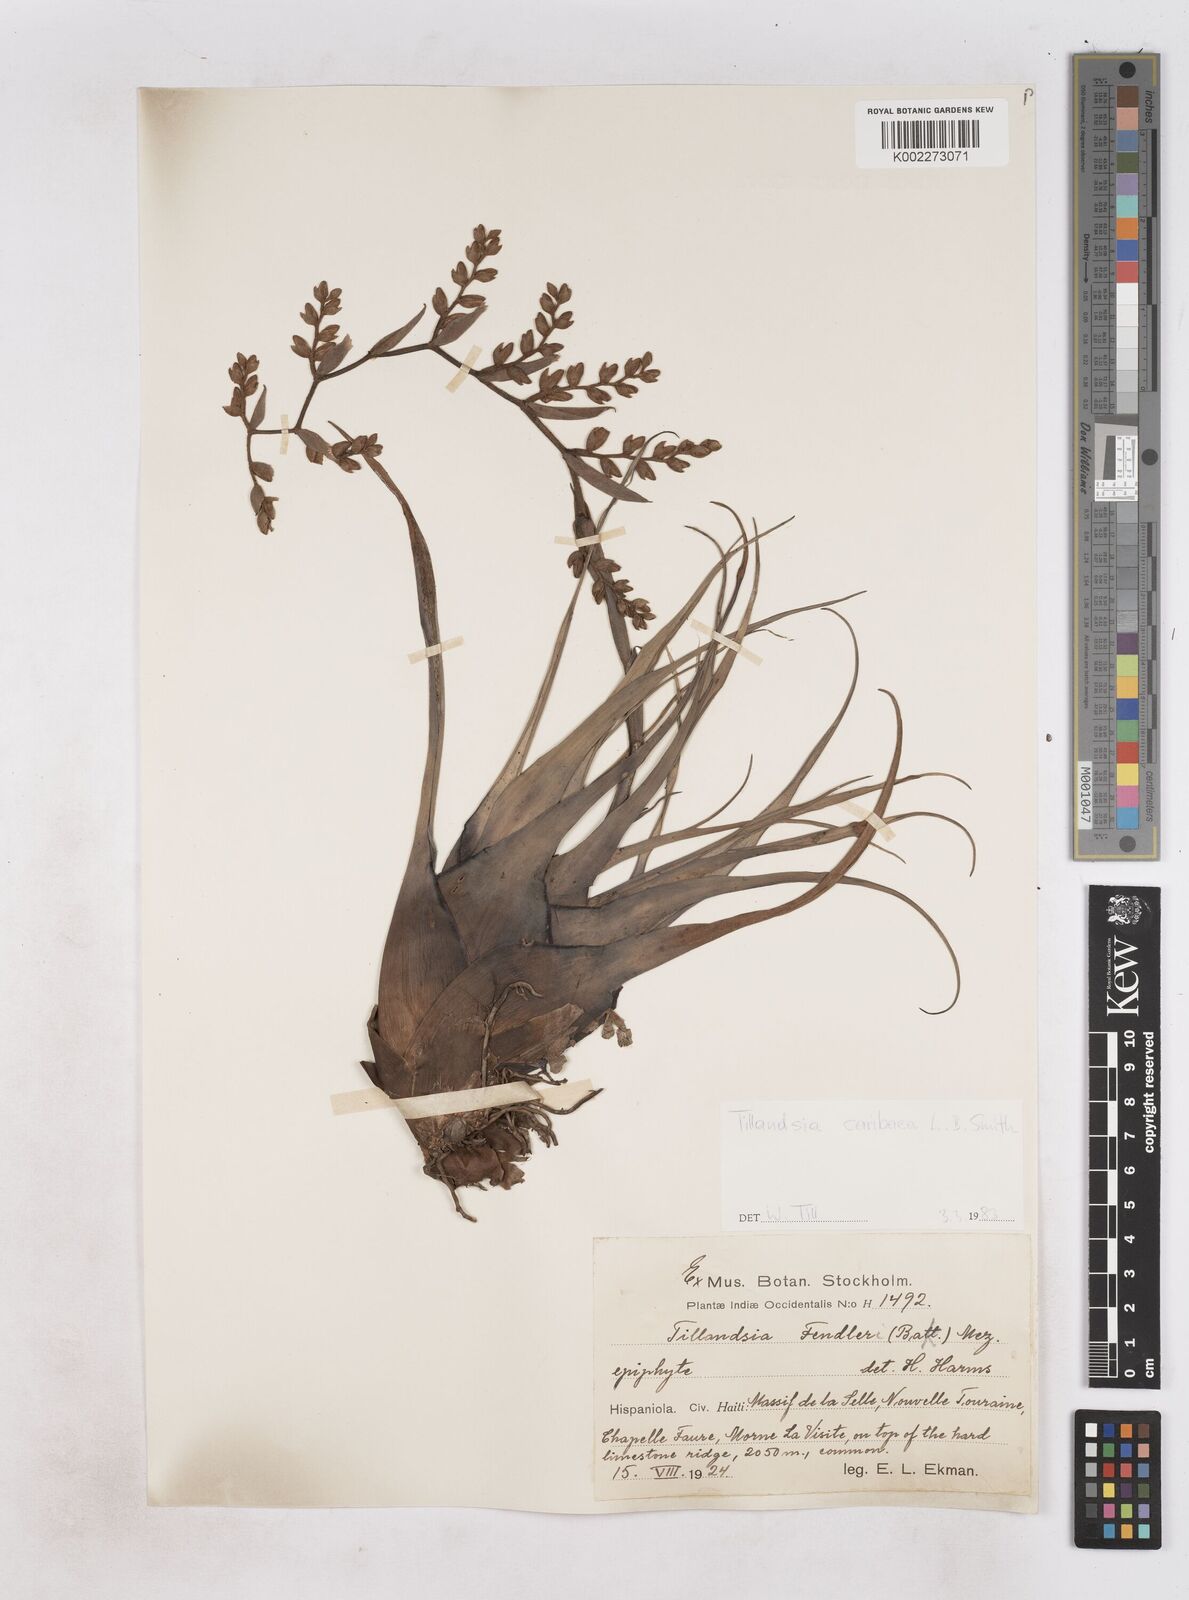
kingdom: Plantae
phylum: Tracheophyta
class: Liliopsida
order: Poales
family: Bromeliaceae
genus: Racinaea
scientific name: Racinaea tetrantha
